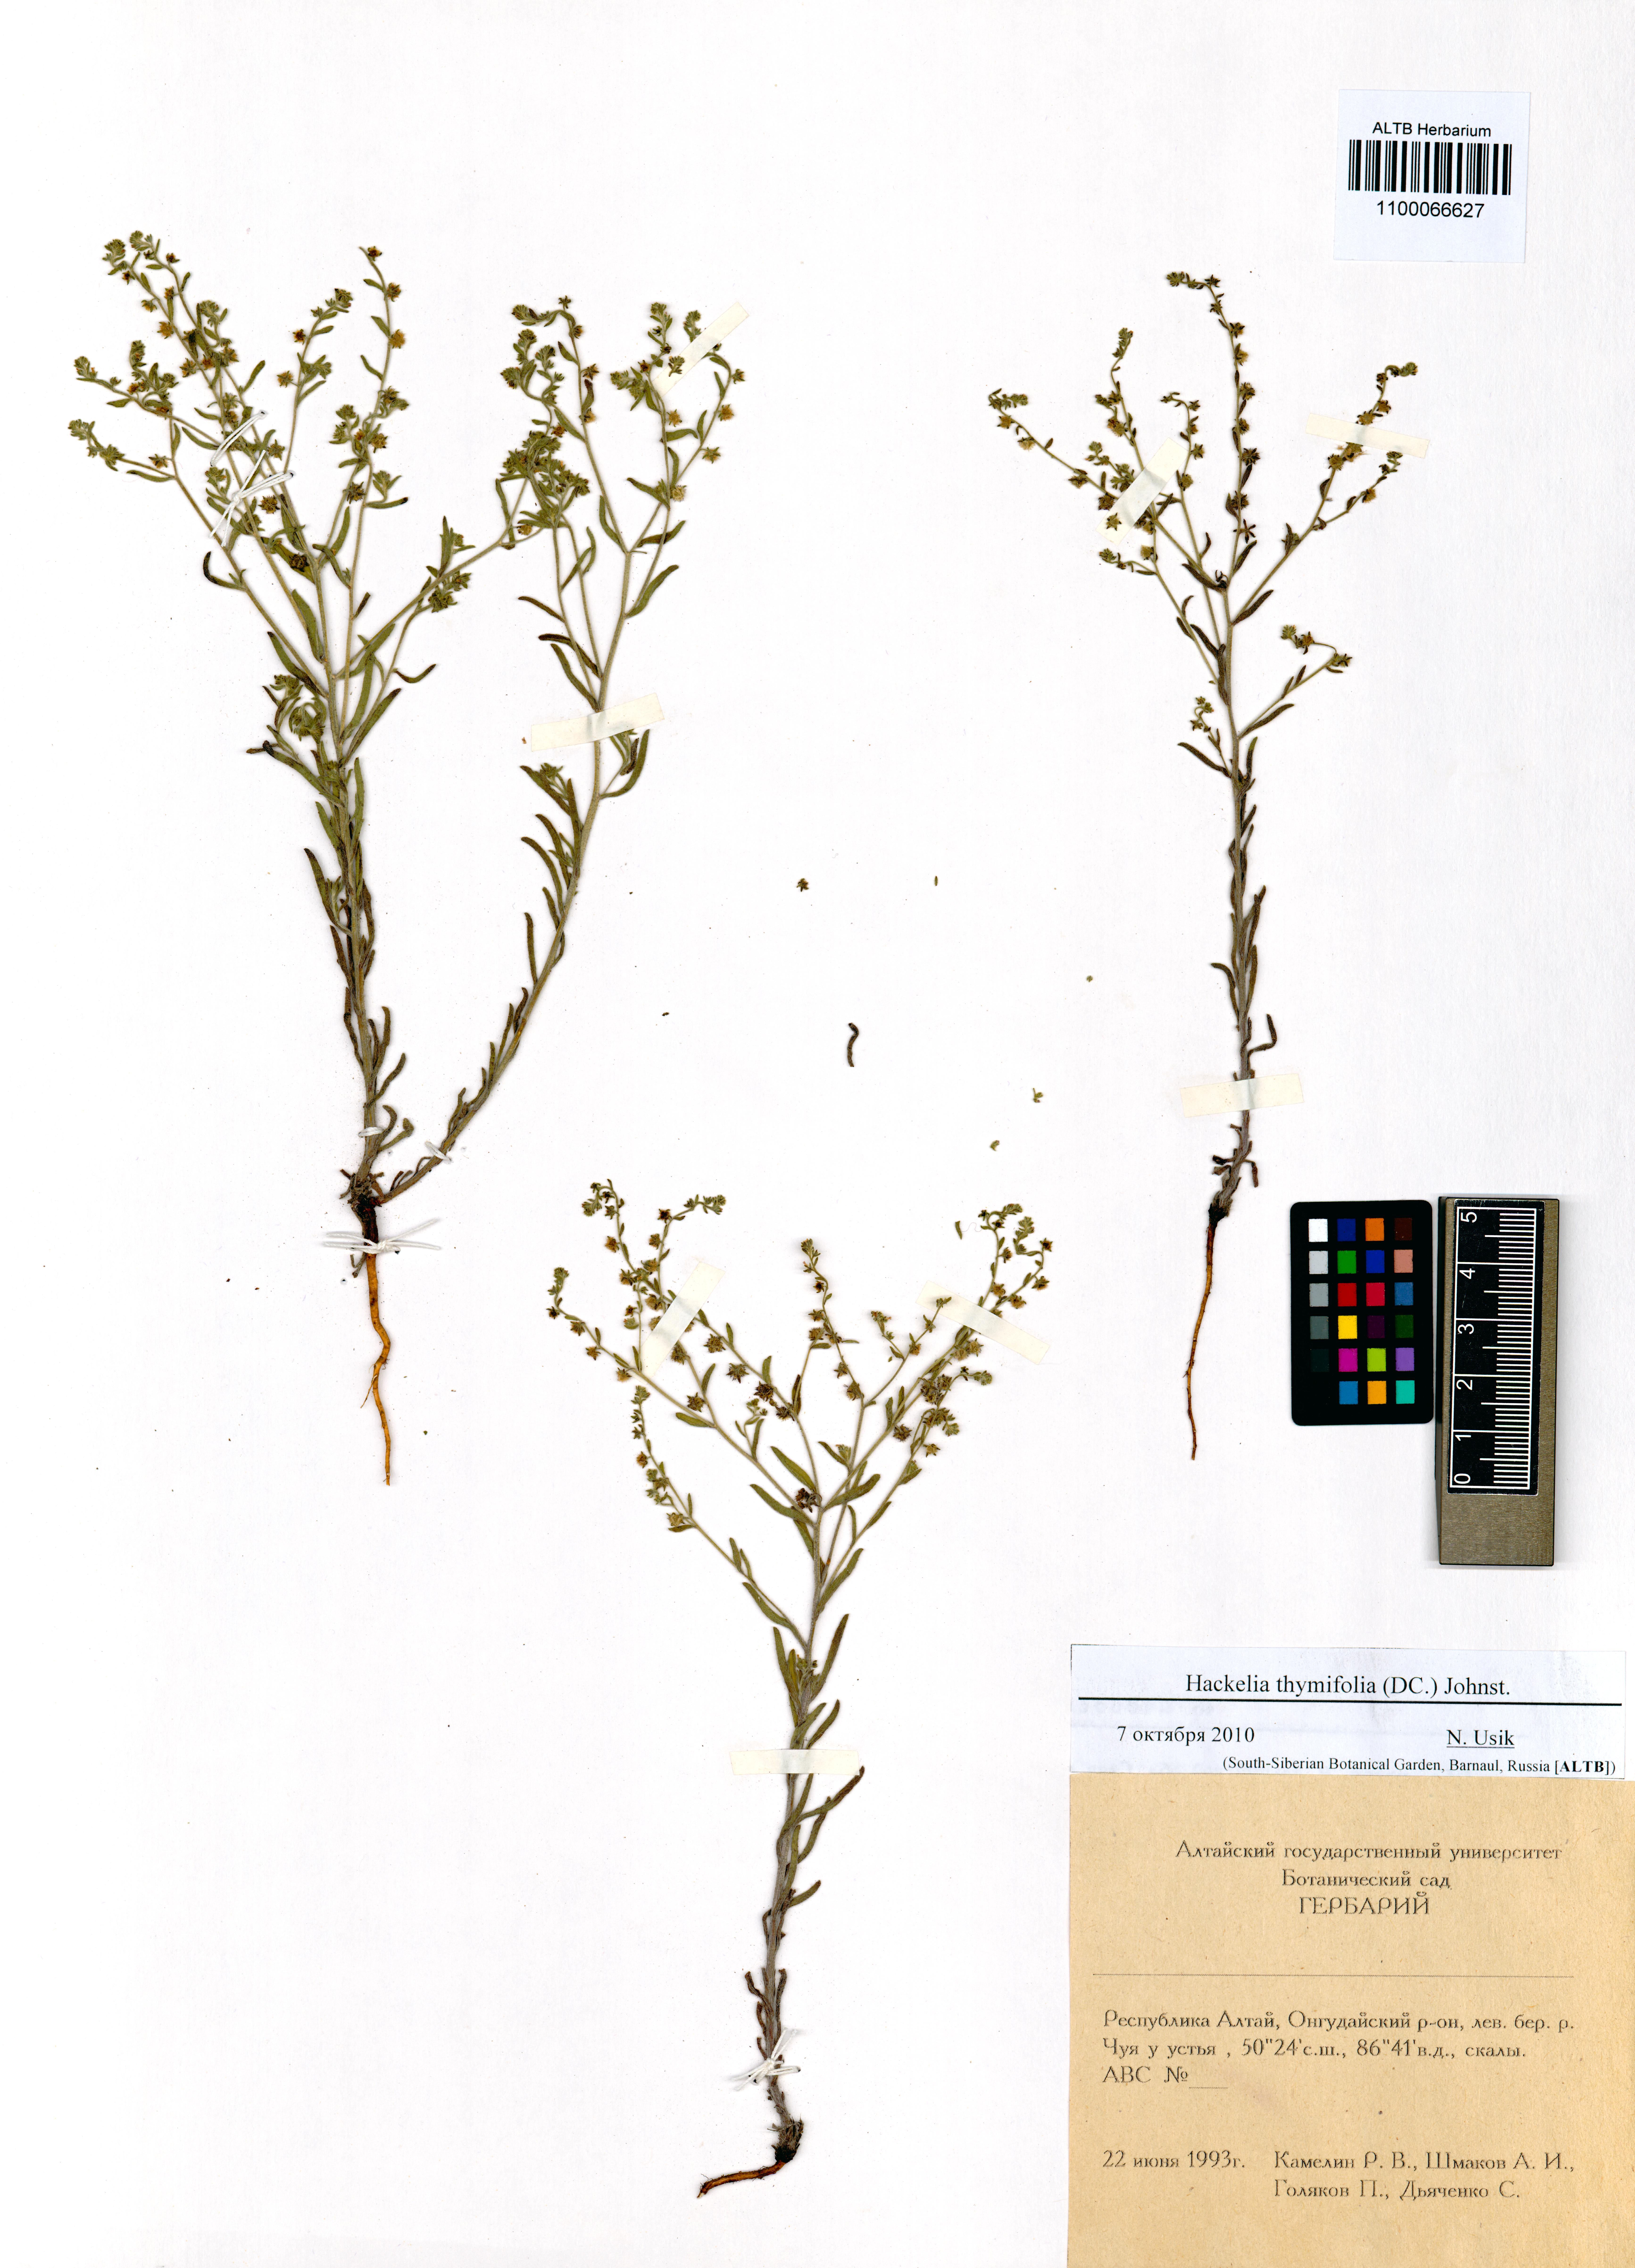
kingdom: Plantae
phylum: Tracheophyta
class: Magnoliopsida
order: Boraginales
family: Boraginaceae
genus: Eritrichium
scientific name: Eritrichium thymifolium
